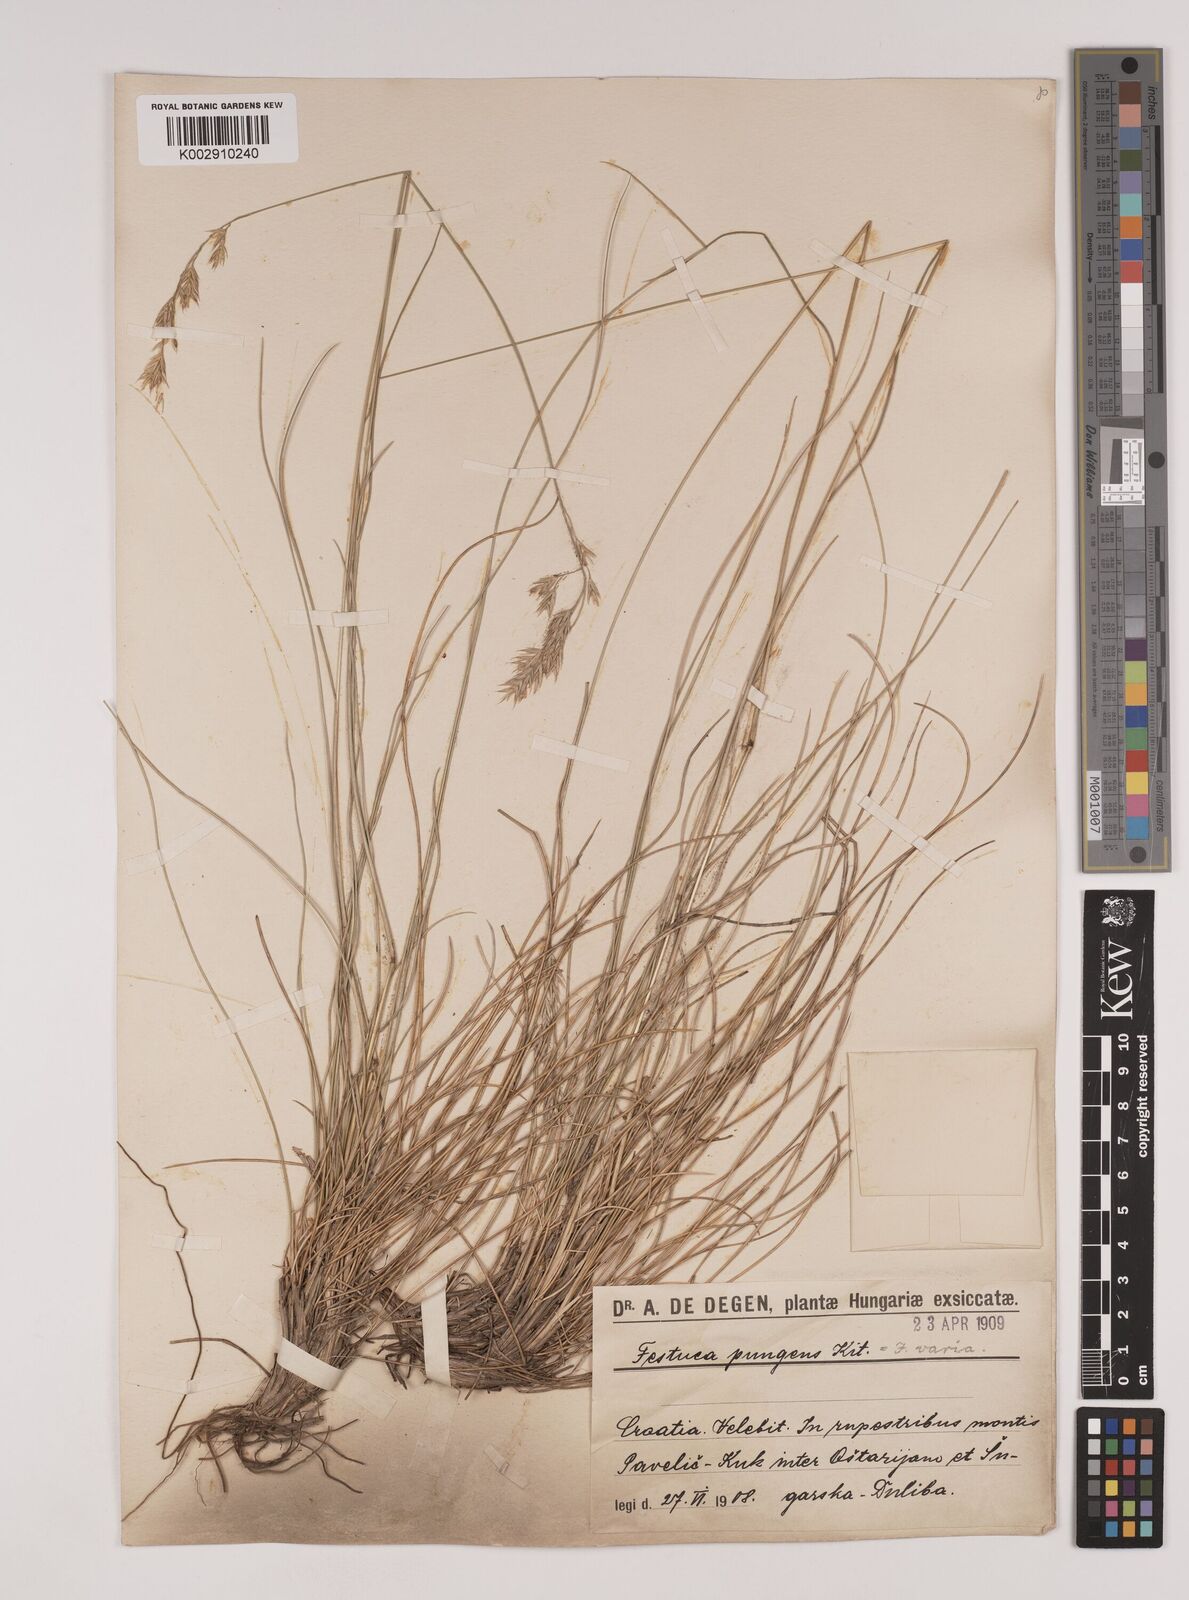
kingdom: Plantae
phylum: Tracheophyta
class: Liliopsida
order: Poales
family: Poaceae
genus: Festuca
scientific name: Festuca bosniaca
